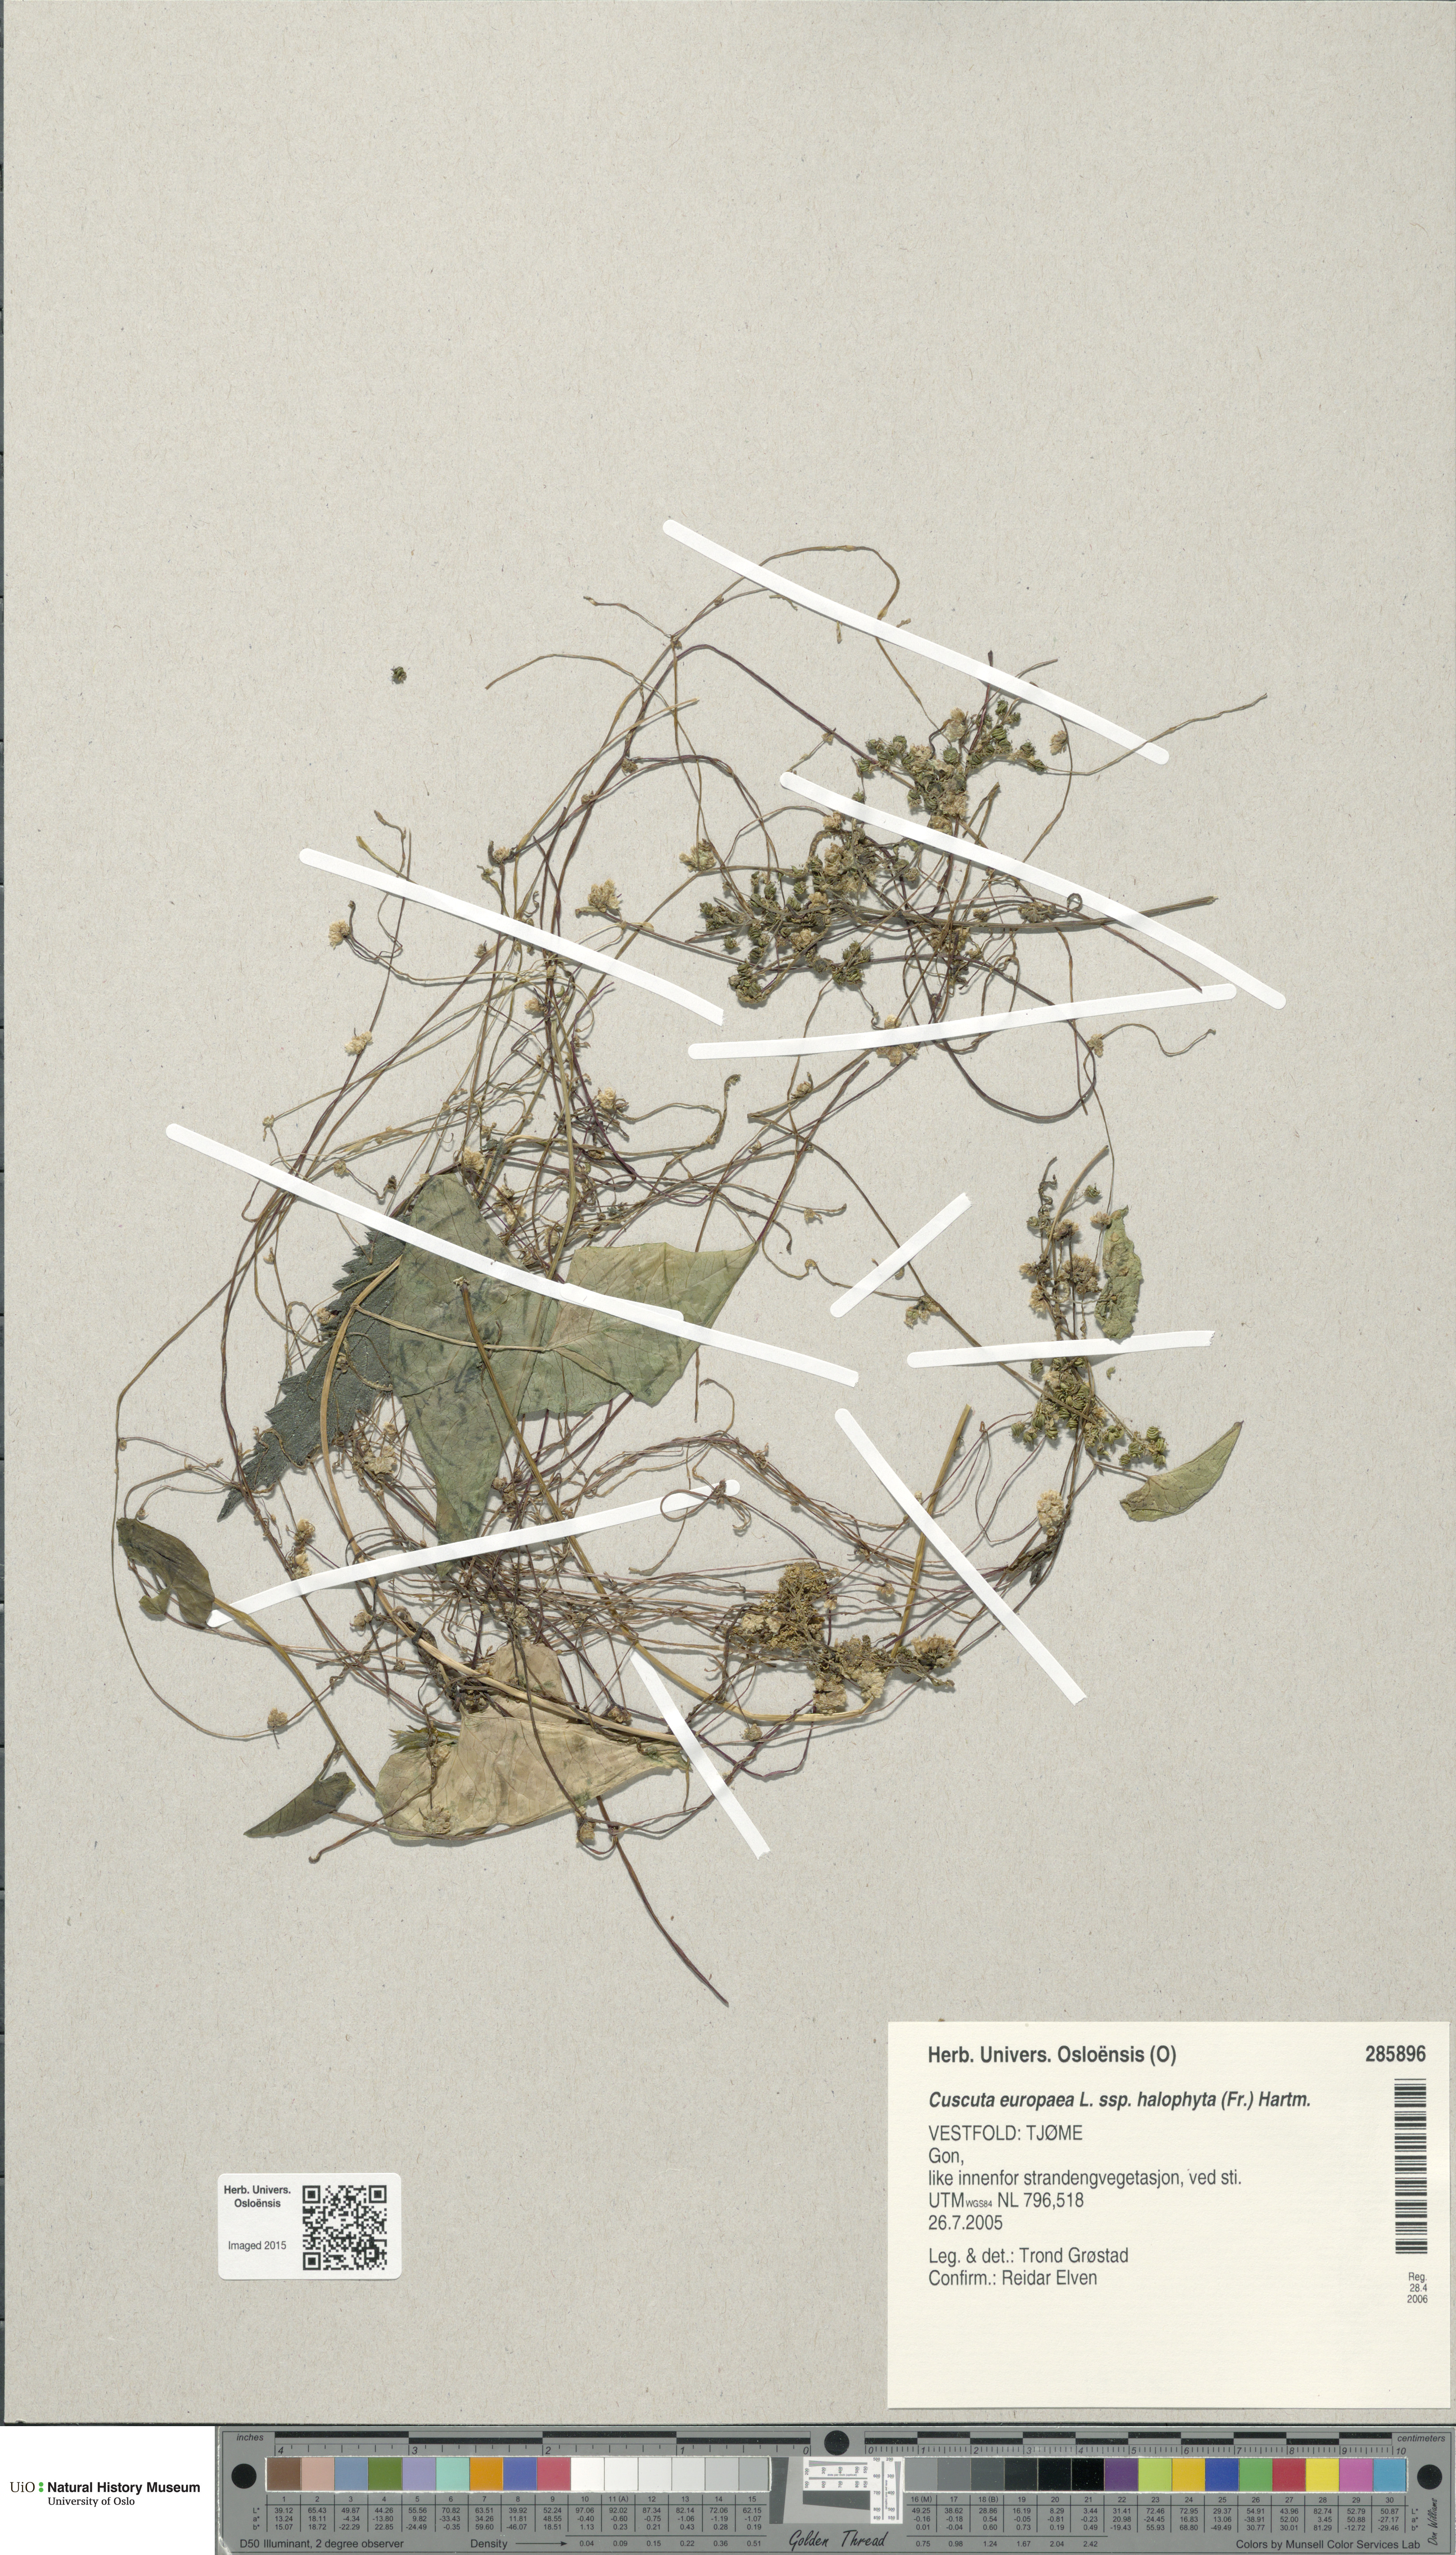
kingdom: Plantae
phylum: Tracheophyta
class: Magnoliopsida
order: Solanales
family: Convolvulaceae
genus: Cuscuta
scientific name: Cuscuta europaea
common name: Greater dodder
